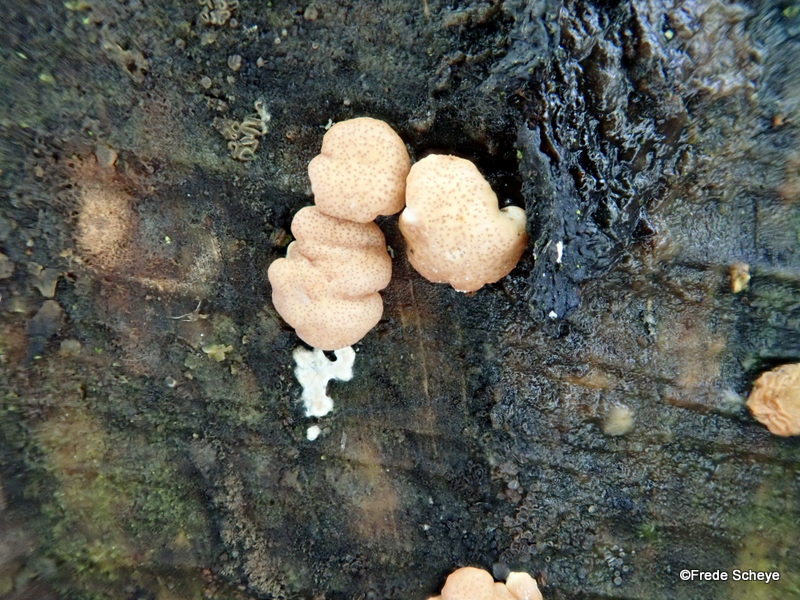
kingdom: Fungi
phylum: Ascomycota
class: Sordariomycetes
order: Hypocreales
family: Hypocreaceae
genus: Trichoderma
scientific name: Trichoderma europaeum
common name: rosabrun kødkerne
